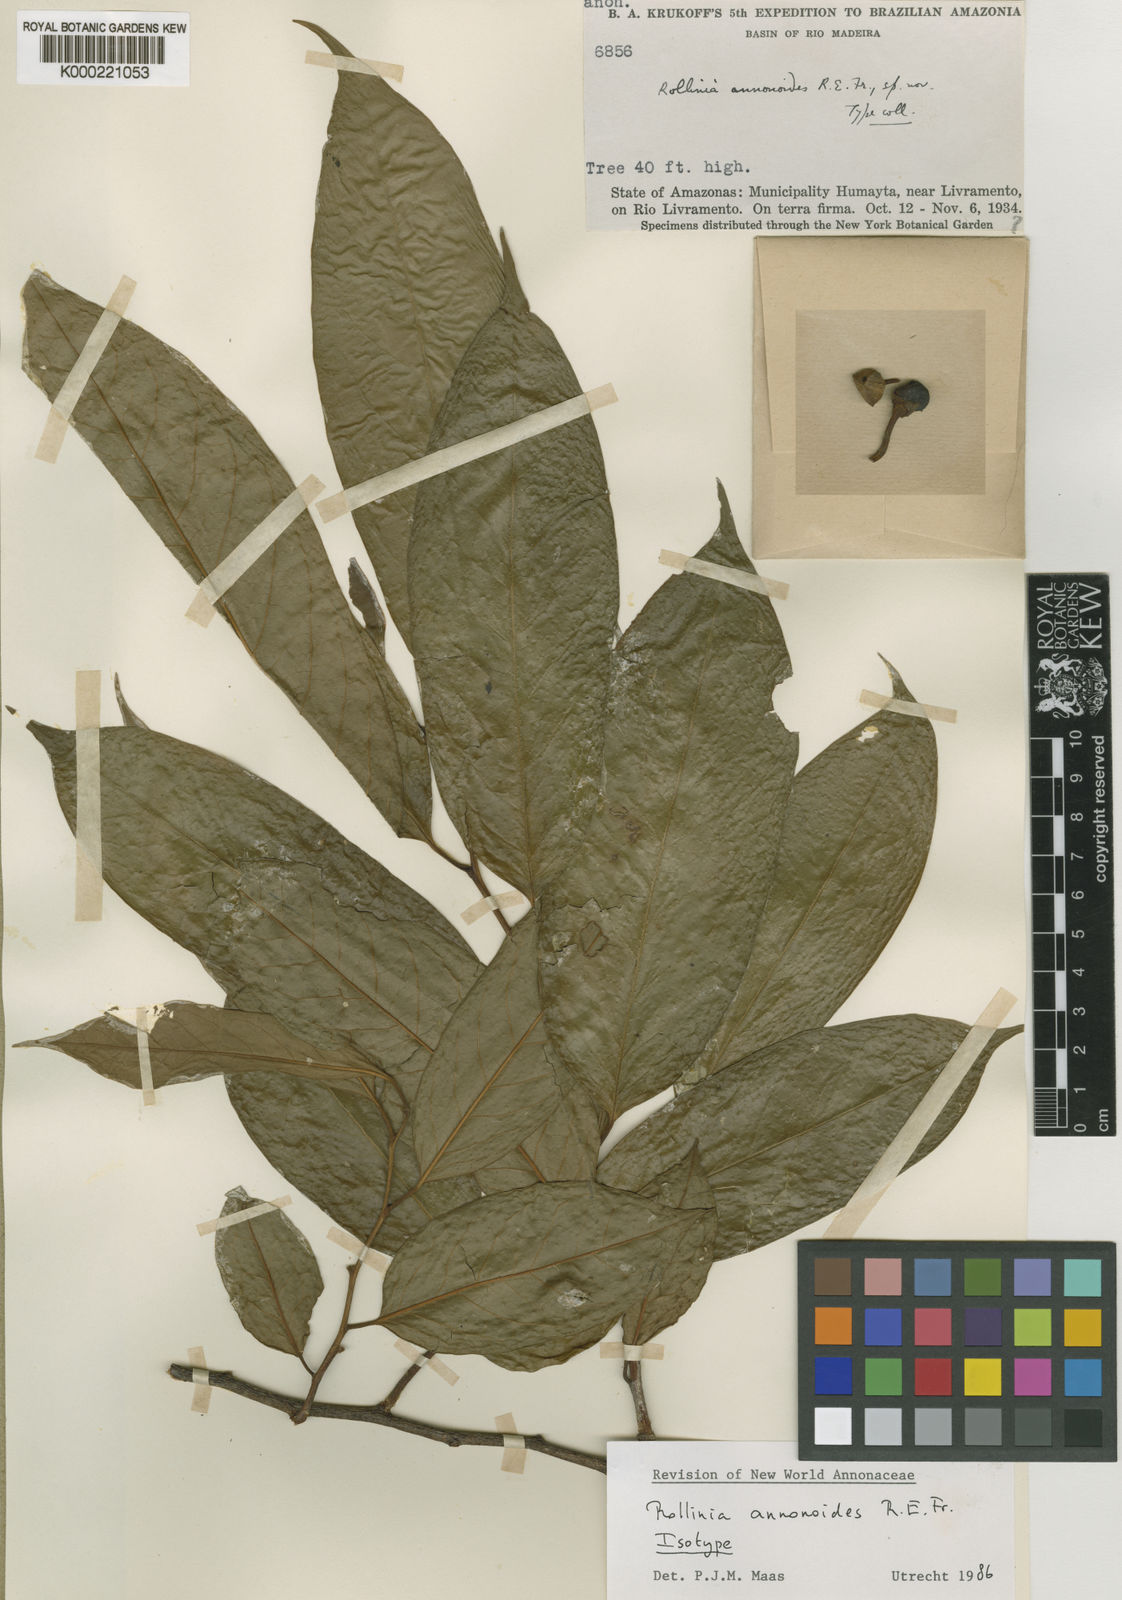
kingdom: Plantae
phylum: Tracheophyta
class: Magnoliopsida
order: Magnoliales
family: Annonaceae
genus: Annona
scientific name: Annona annonoides
